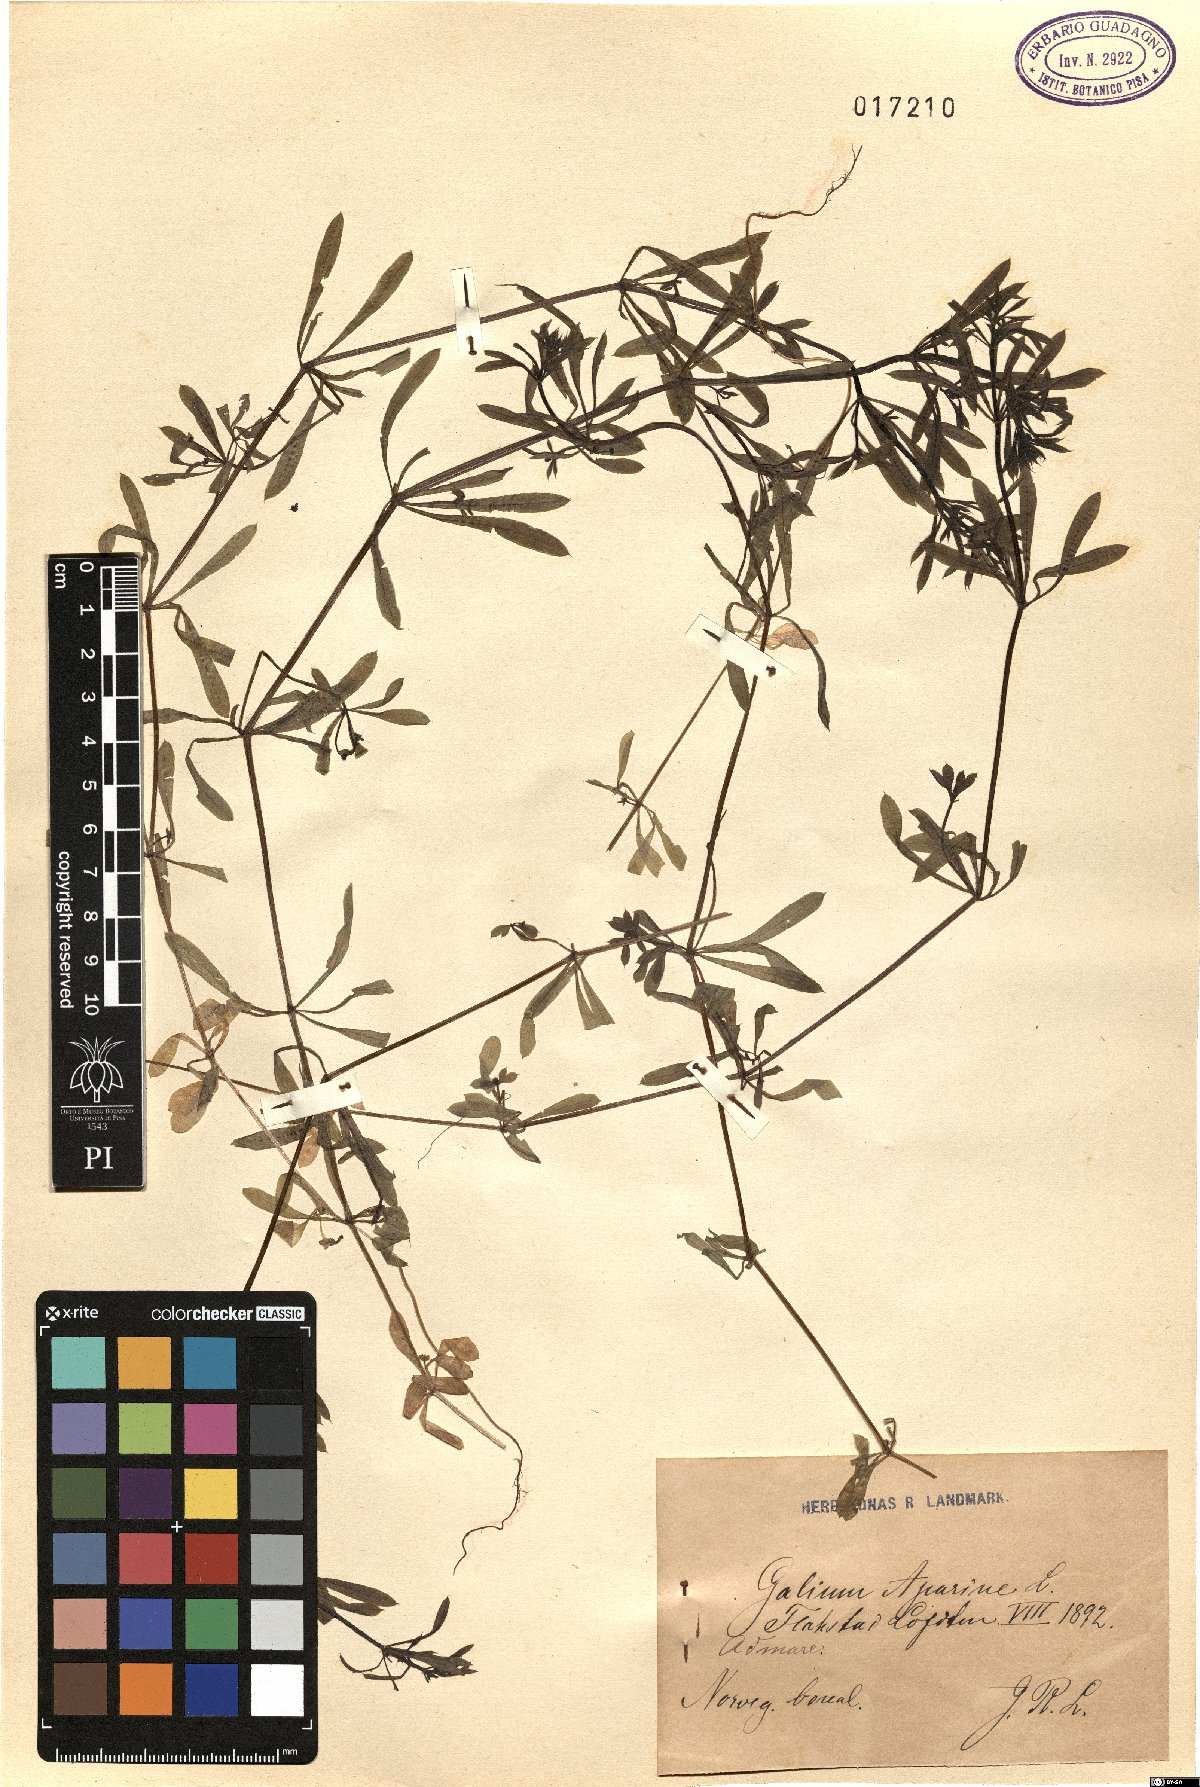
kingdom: Plantae
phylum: Tracheophyta
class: Magnoliopsida
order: Gentianales
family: Rubiaceae
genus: Galium
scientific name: Galium aparine
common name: Cleavers
